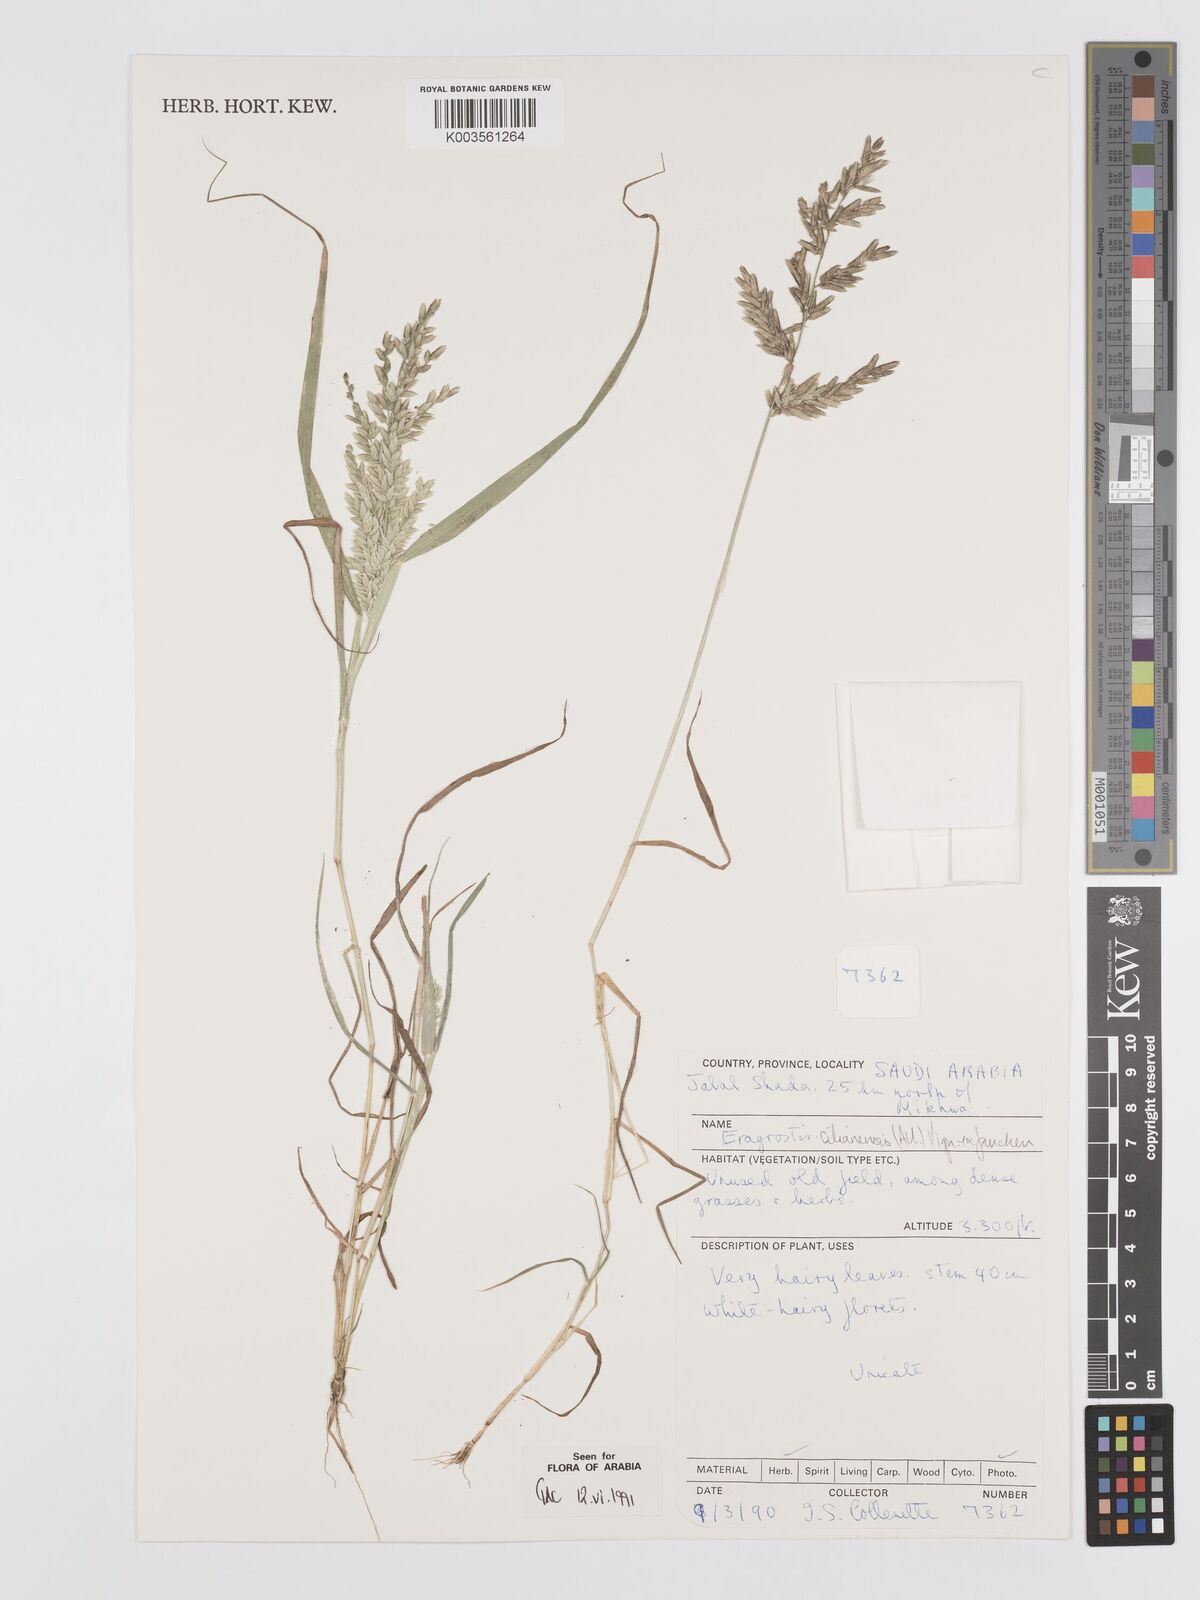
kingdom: Plantae
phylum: Tracheophyta
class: Liliopsida
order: Poales
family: Poaceae
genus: Eragrostis
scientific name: Eragrostis cilianensis
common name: Stinkgrass
